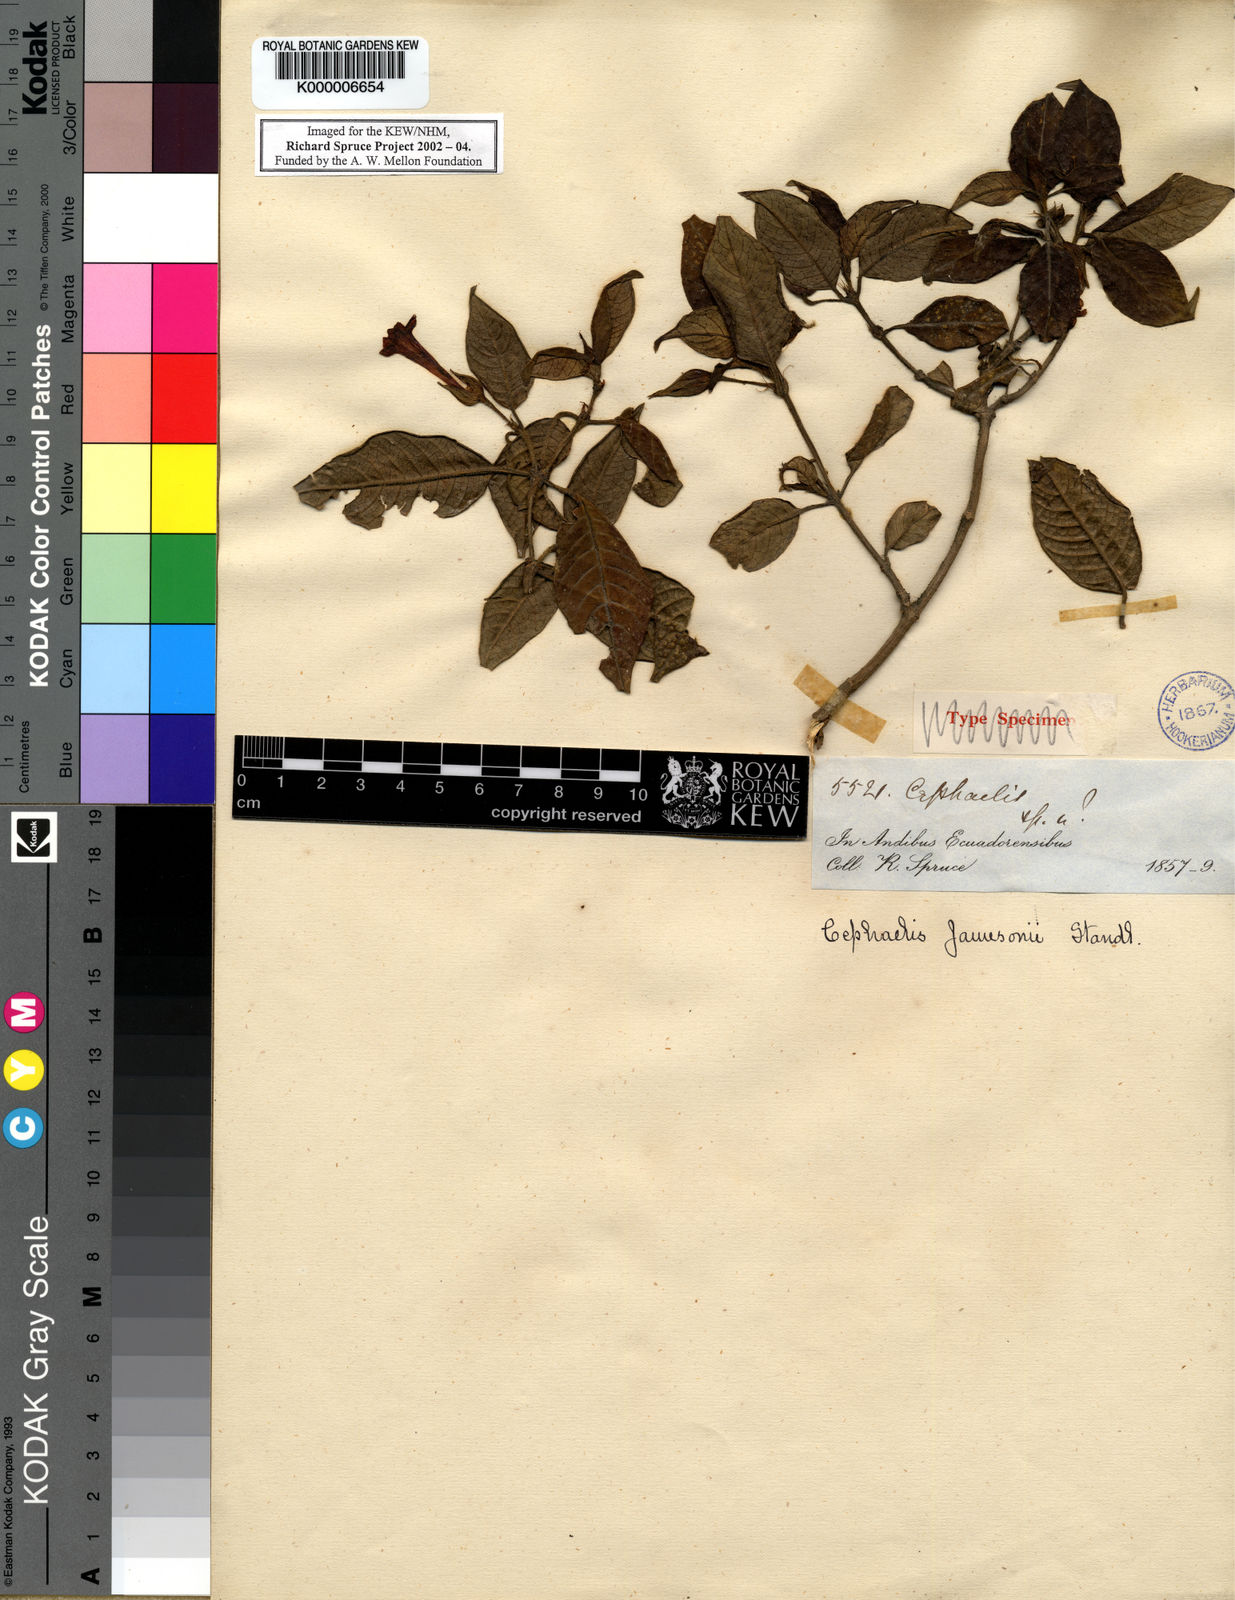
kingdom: Plantae
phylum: Tracheophyta
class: Magnoliopsida
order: Gentianales
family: Rubiaceae
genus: Palicourea
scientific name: Palicourea fuchsioides
